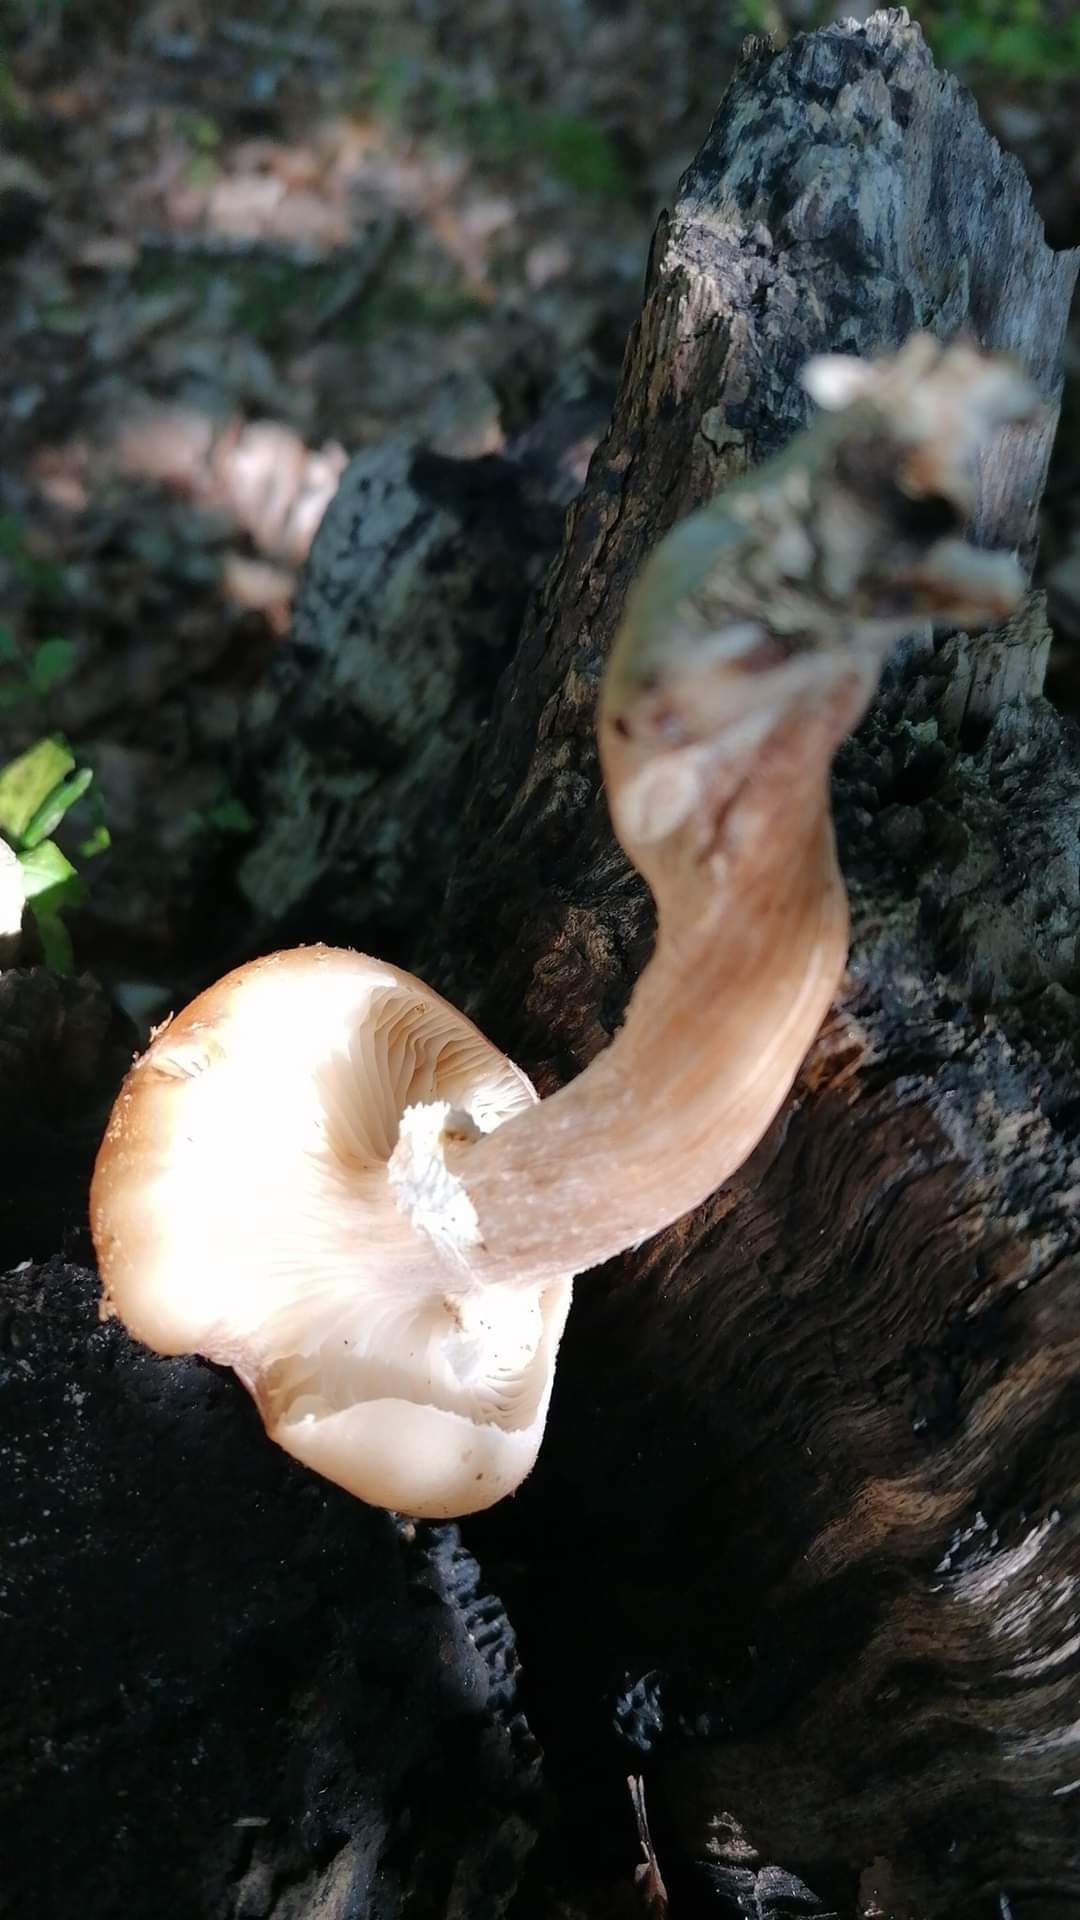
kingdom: Fungi
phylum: Basidiomycota
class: Agaricomycetes
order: Agaricales
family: Physalacriaceae
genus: Armillaria
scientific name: Armillaria lutea
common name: køllestokket honningsvamp
